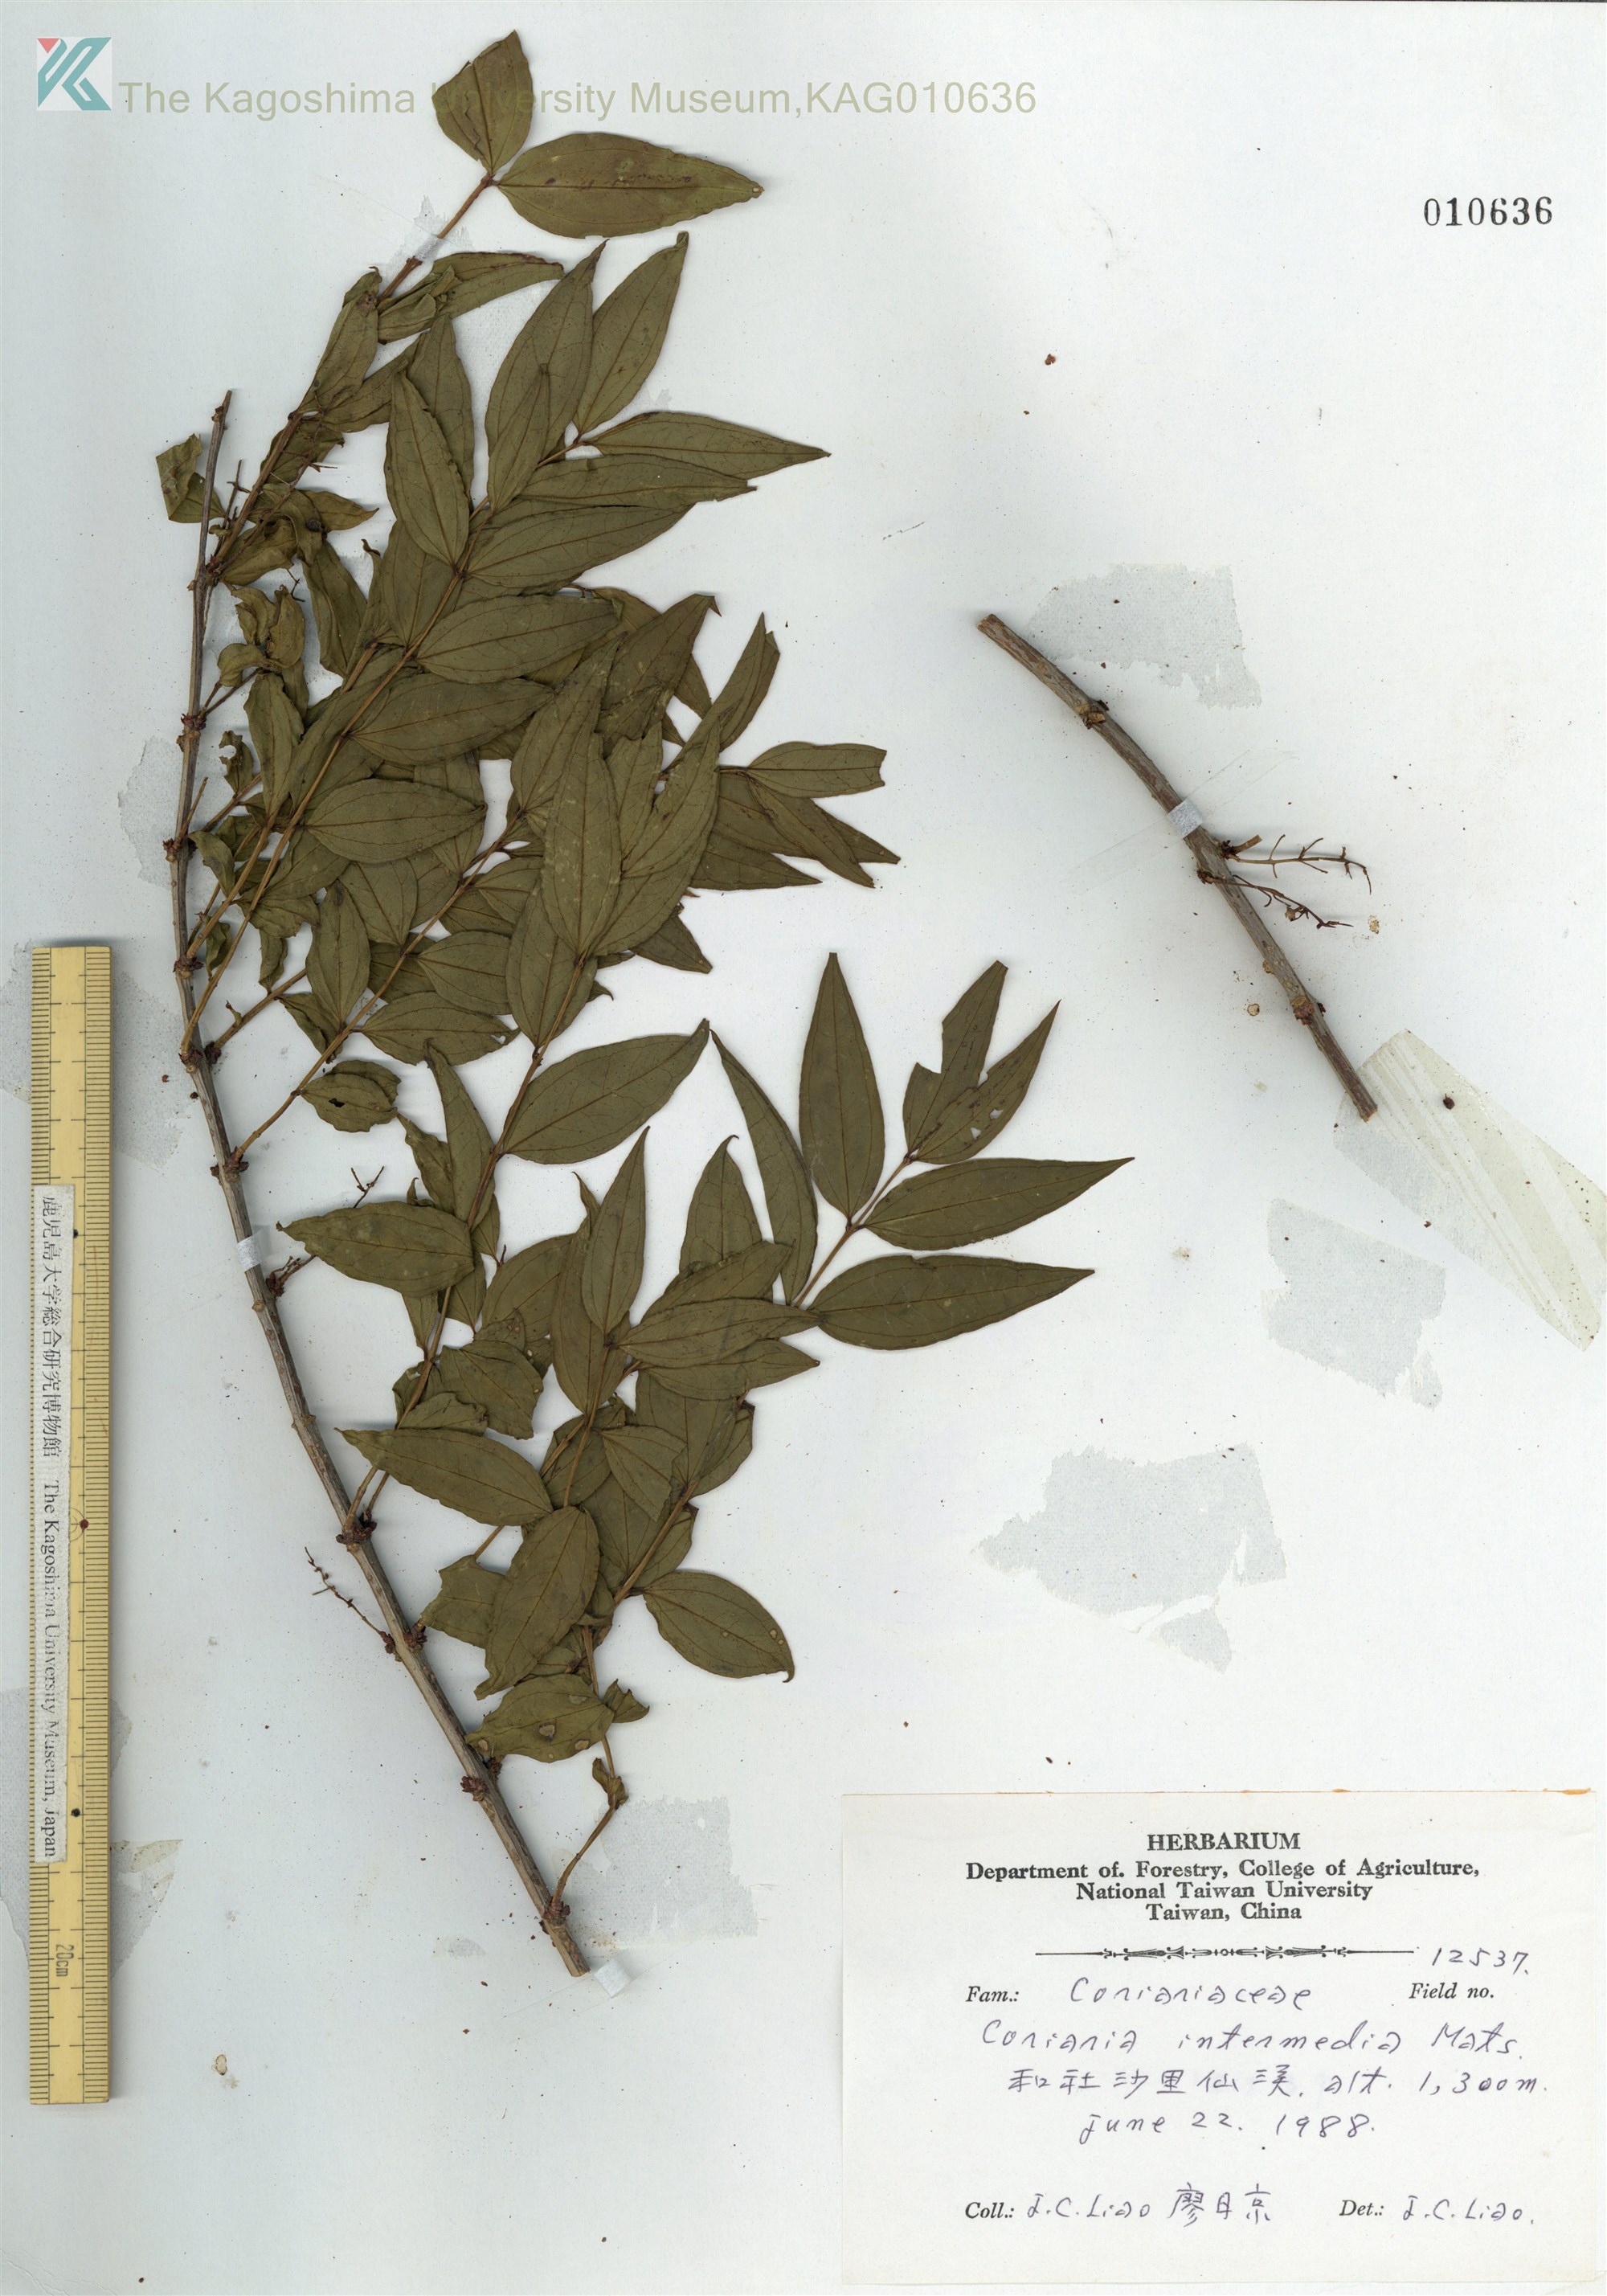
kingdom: Plantae
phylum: Tracheophyta
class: Magnoliopsida
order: Cucurbitales
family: Coriariaceae
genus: Coriaria
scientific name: Coriaria japonica
